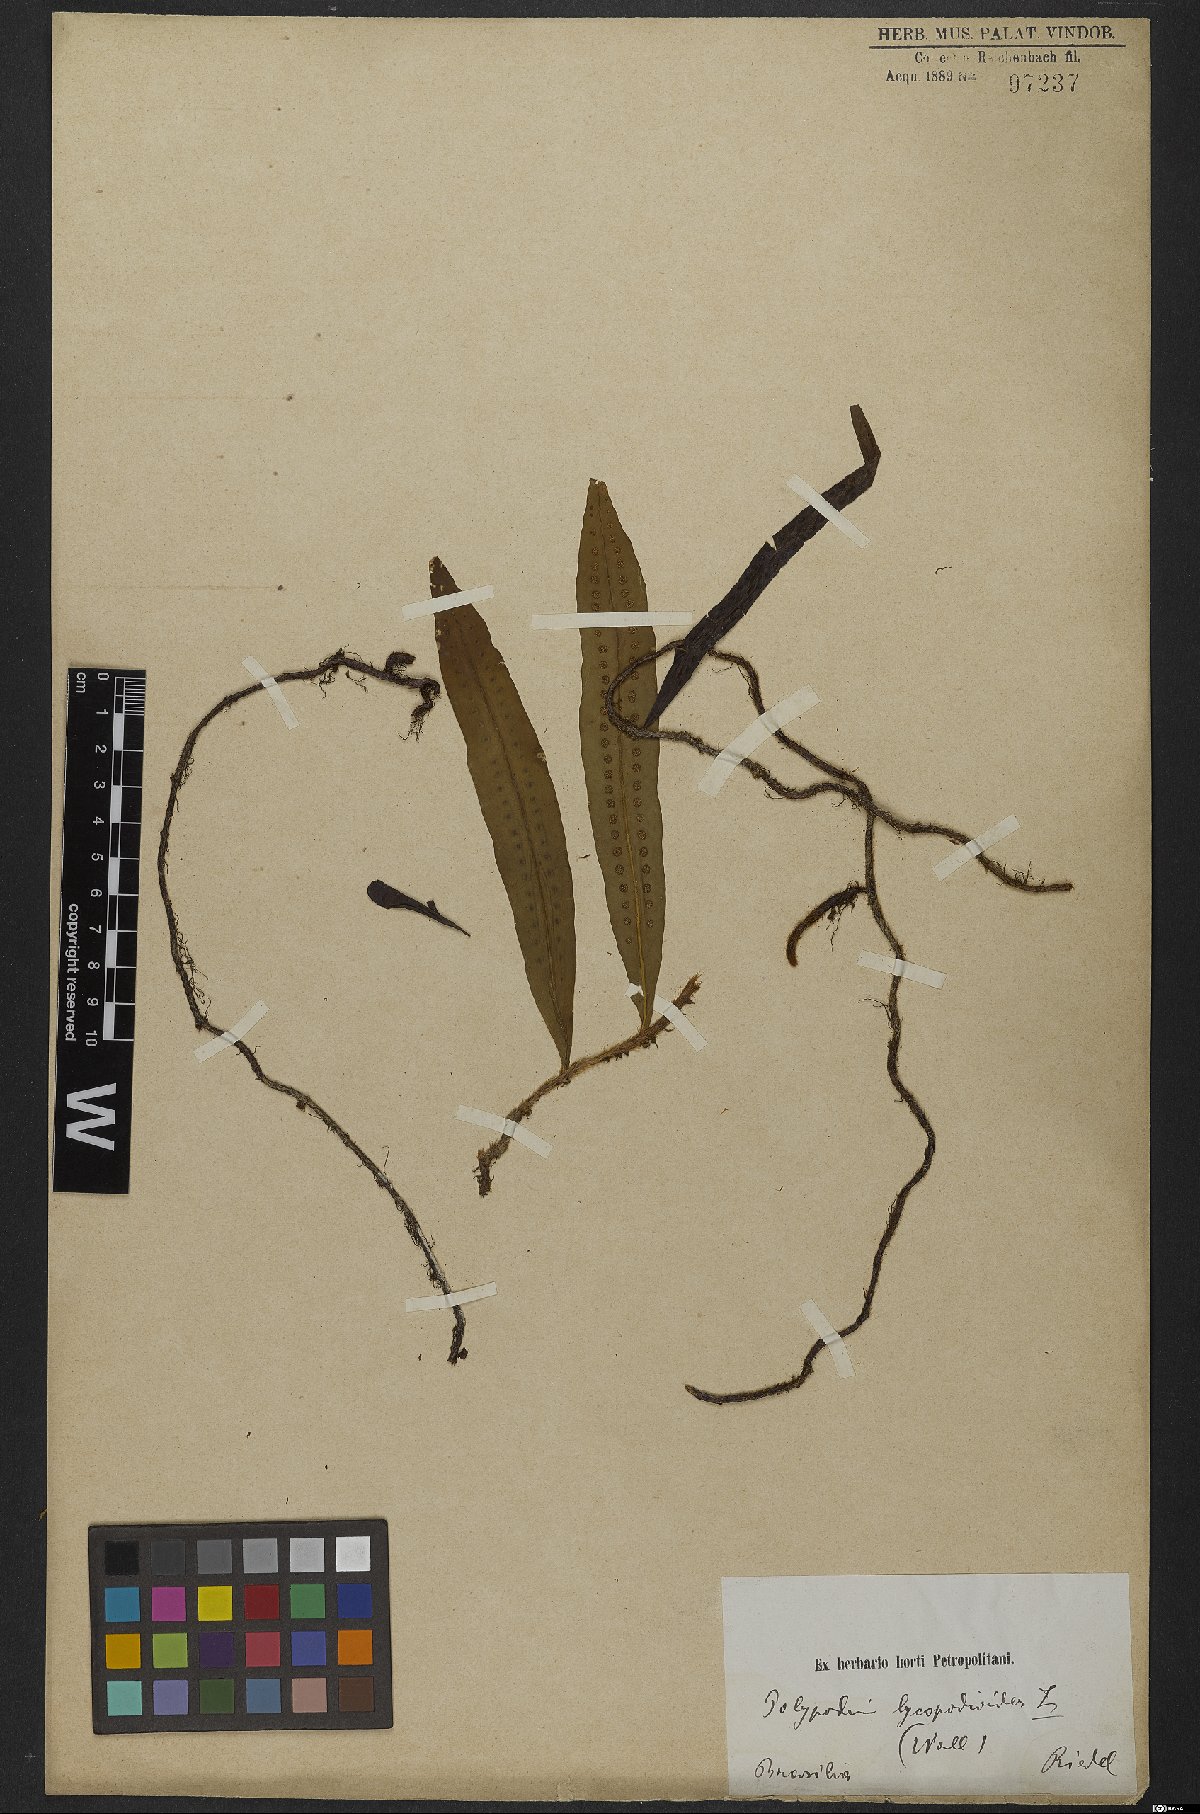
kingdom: Plantae
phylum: Tracheophyta
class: Polypodiopsida
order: Polypodiales
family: Polypodiaceae
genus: Microgramma
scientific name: Microgramma lycopodioides
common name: Bastard catclaw
